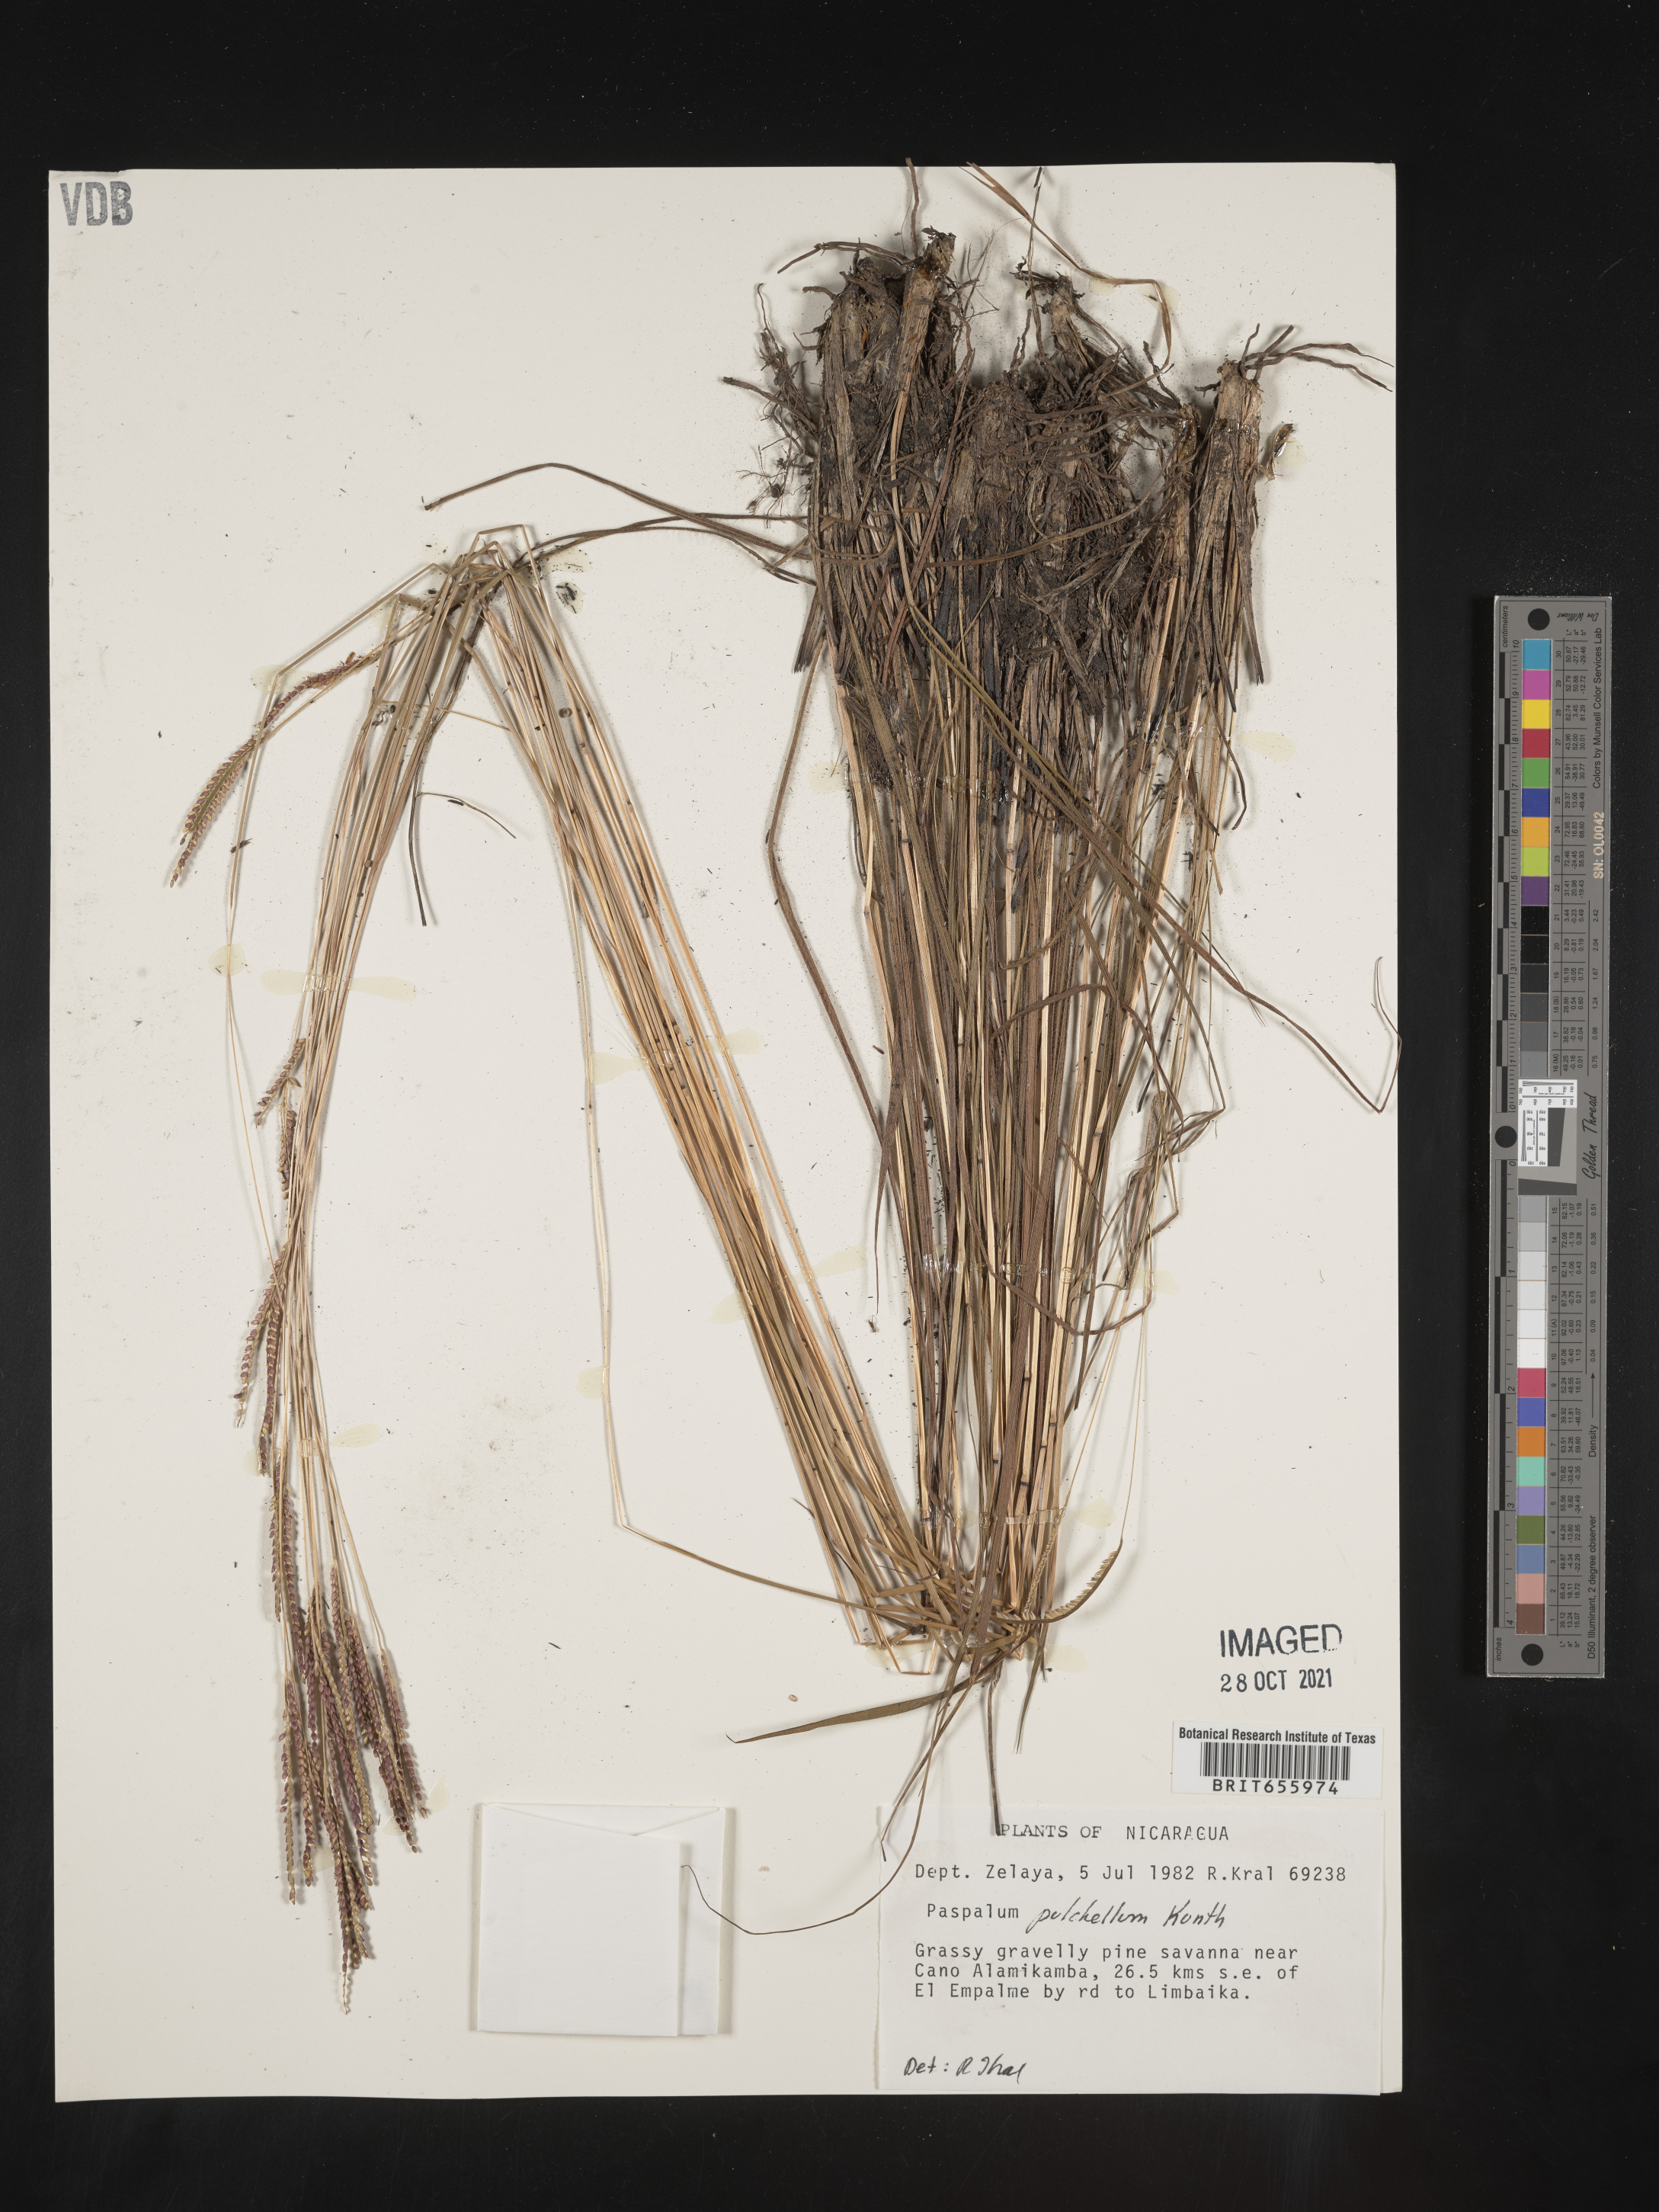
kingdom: Plantae
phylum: Tracheophyta
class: Liliopsida
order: Poales
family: Poaceae
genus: Paspalum
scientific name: Paspalum
